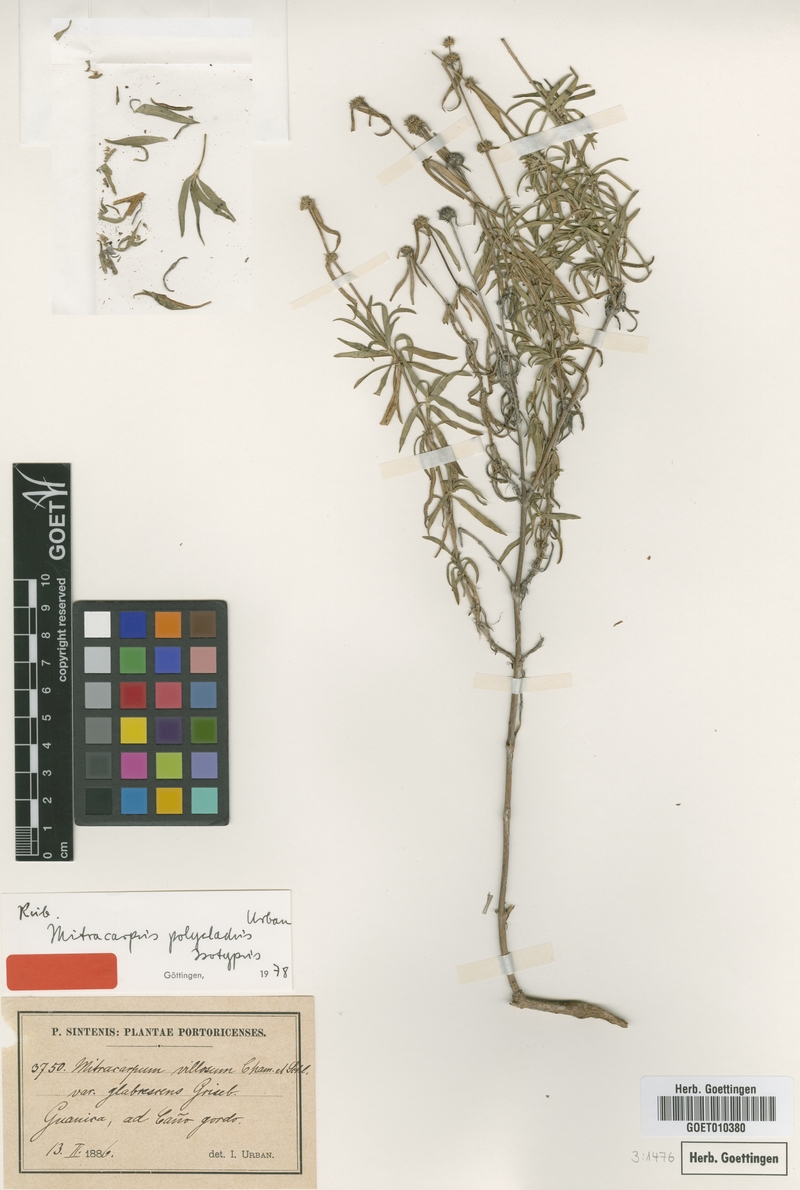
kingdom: Plantae
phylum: Tracheophyta
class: Magnoliopsida
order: Gentianales
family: Rubiaceae
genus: Mitracarpus
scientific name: Mitracarpus polycladus
